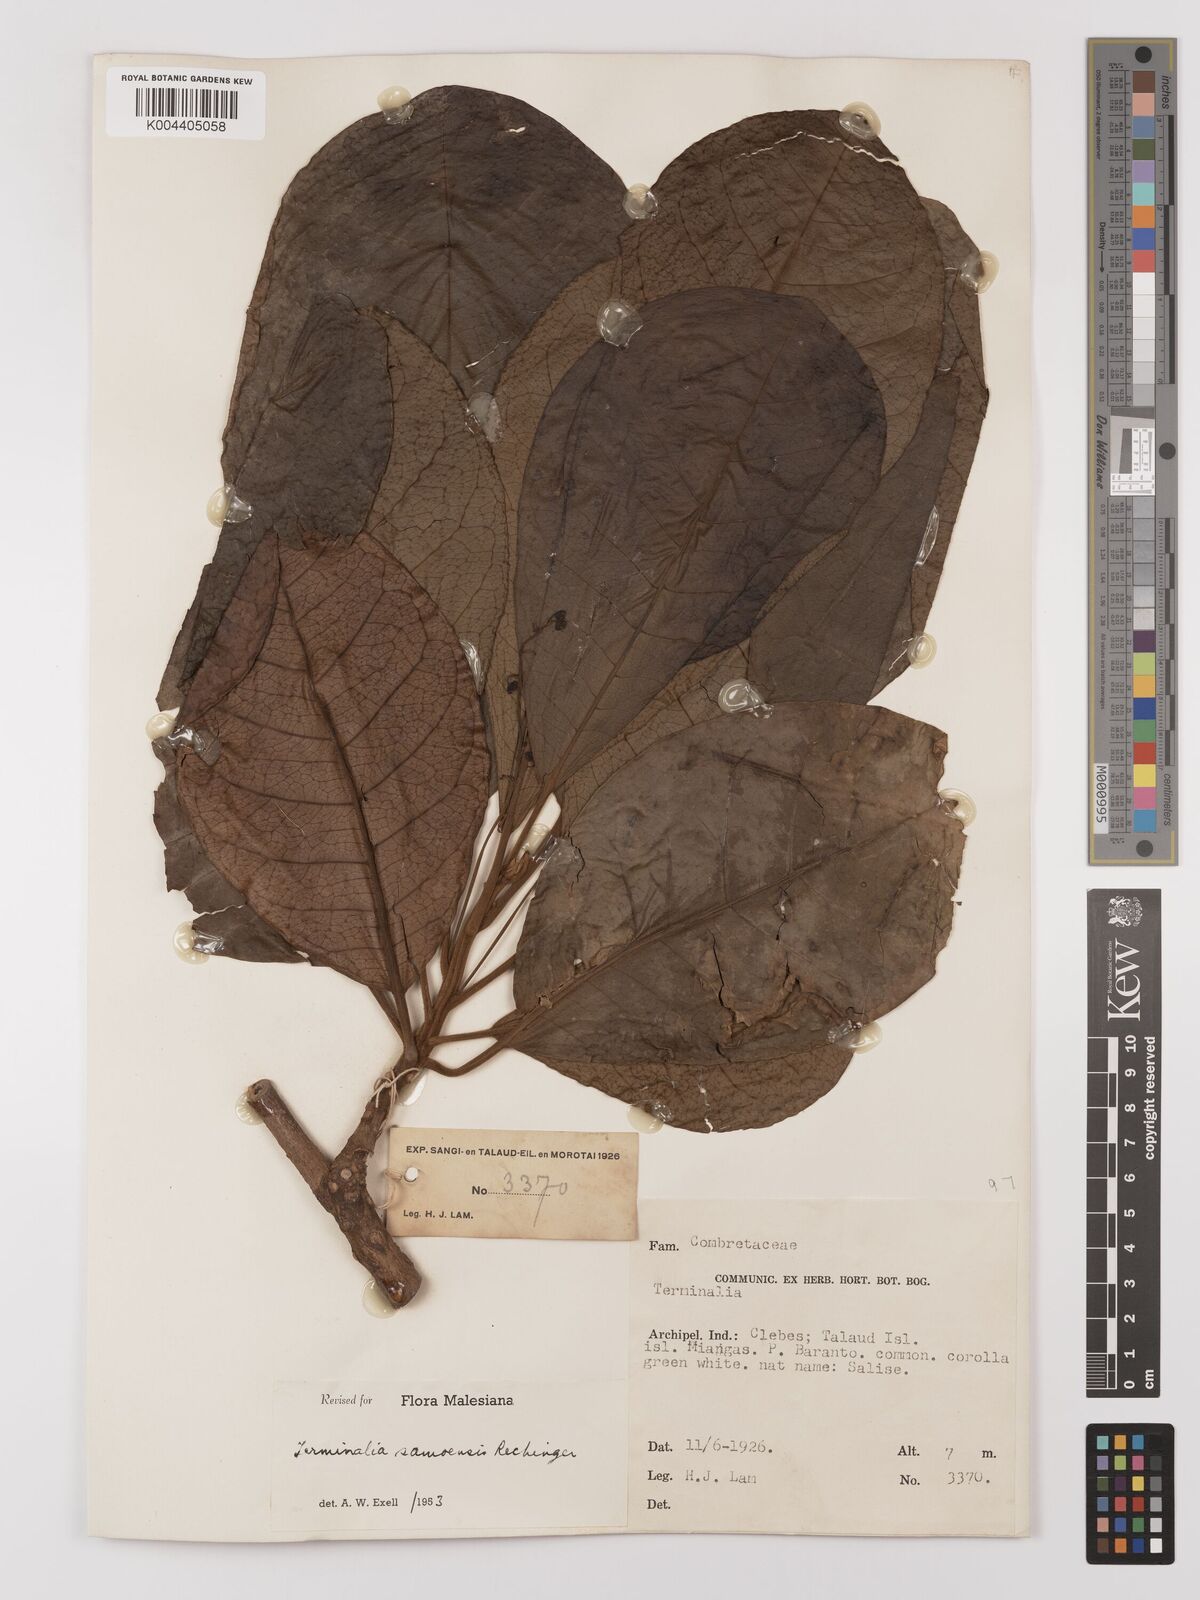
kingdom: Plantae
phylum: Tracheophyta
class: Magnoliopsida
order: Myrtales
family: Combretaceae
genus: Terminalia
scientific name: Terminalia samoensis
